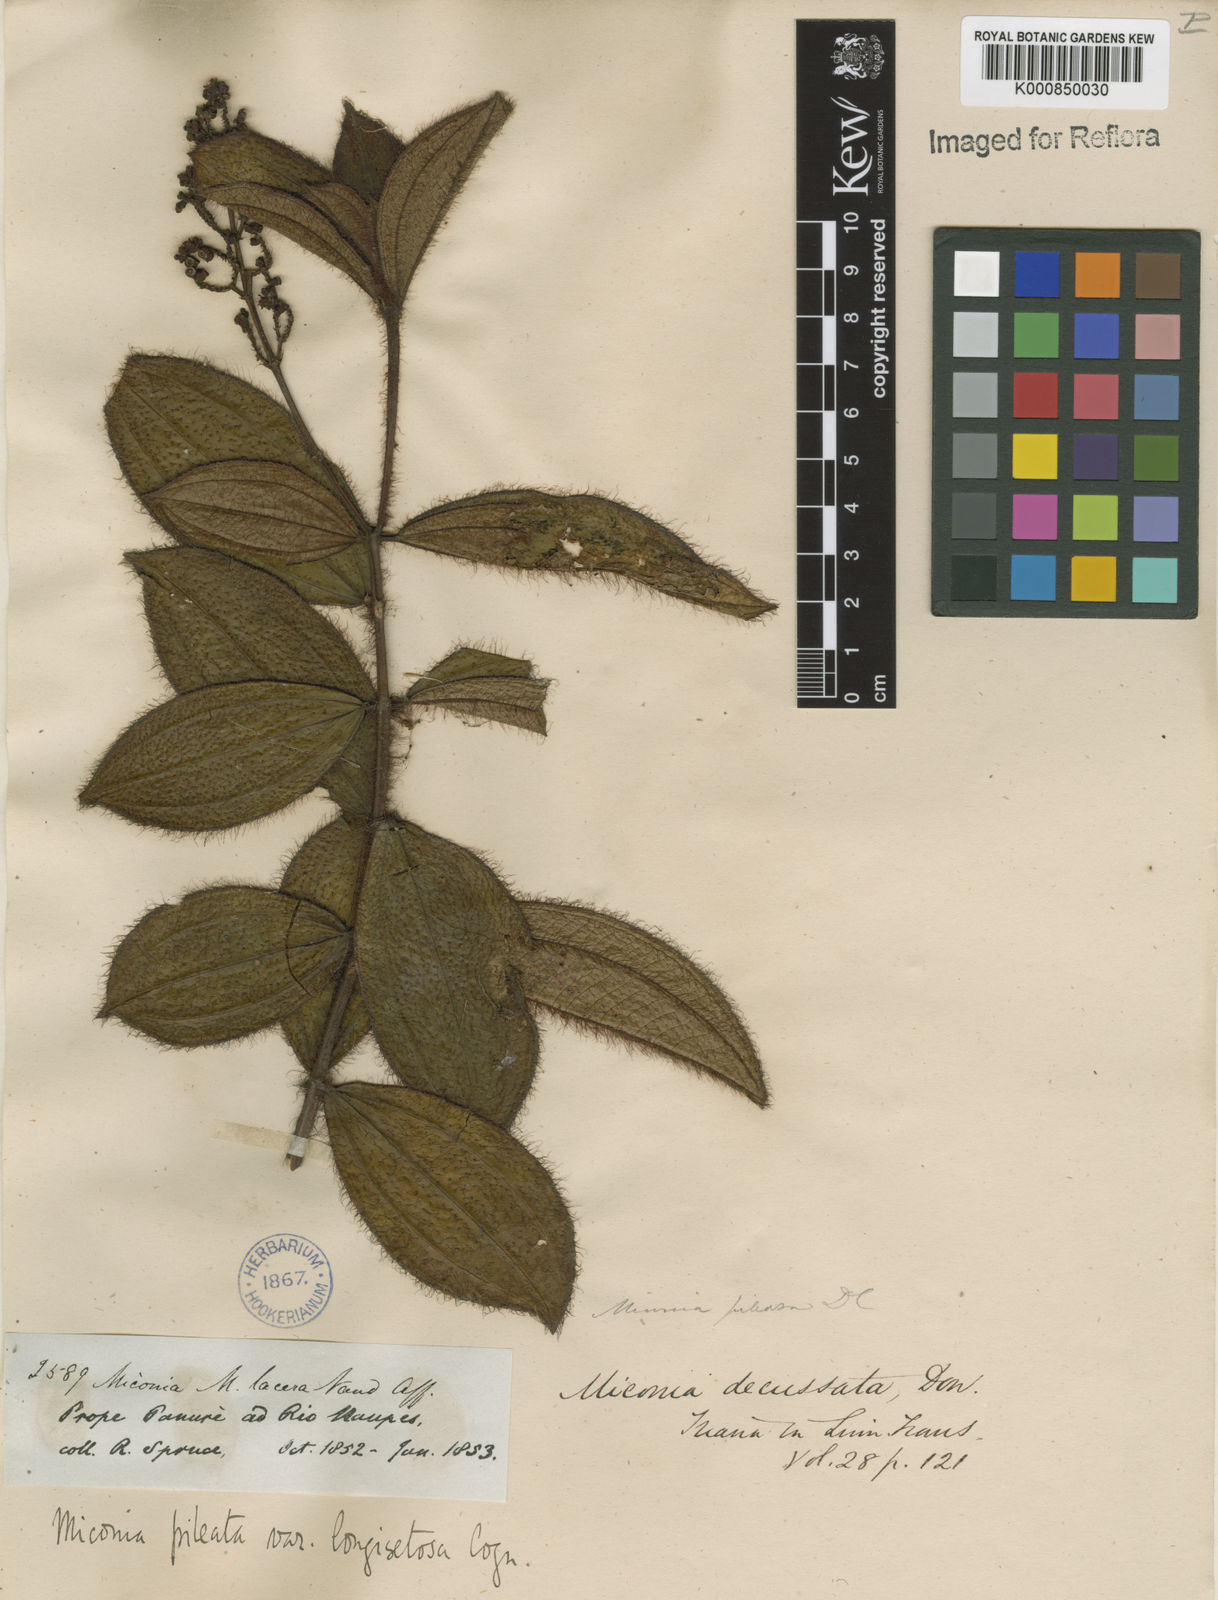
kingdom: Plantae
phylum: Tracheophyta
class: Magnoliopsida
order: Myrtales
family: Melastomataceae
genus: Miconia
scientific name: Miconia pileata
